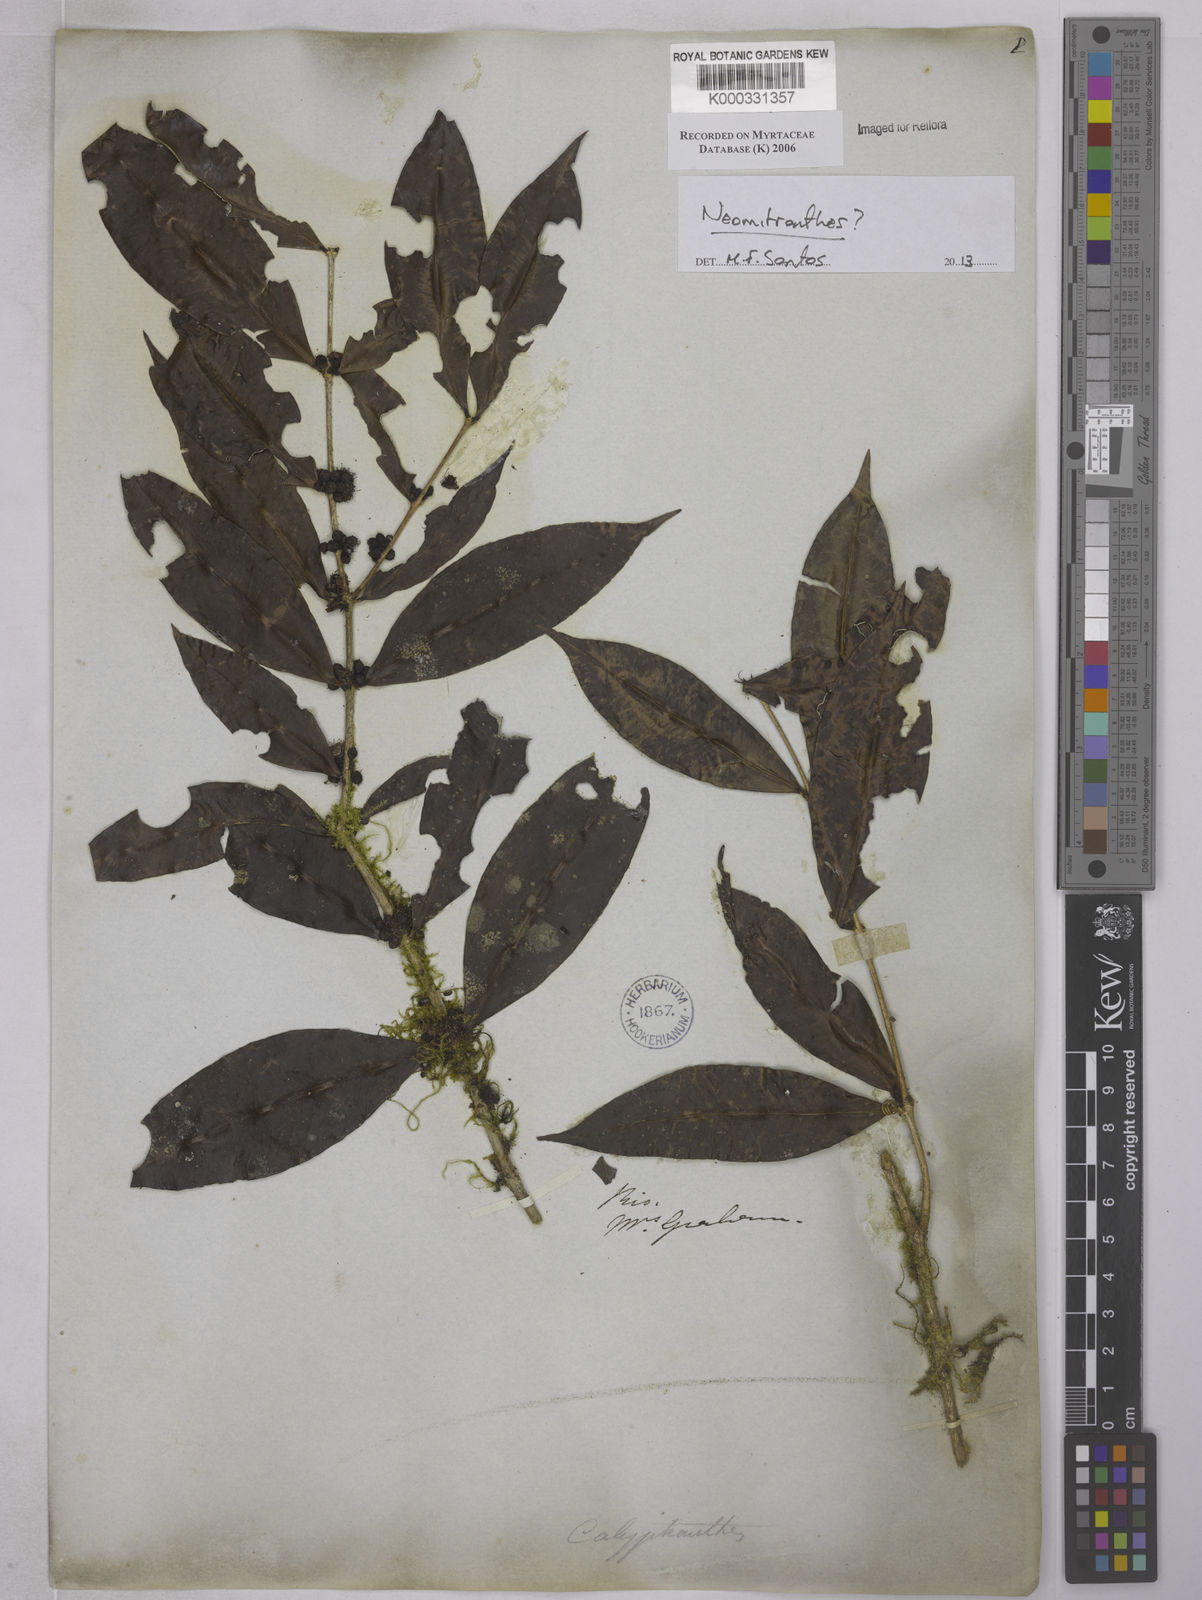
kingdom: Plantae
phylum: Tracheophyta
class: Magnoliopsida
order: Myrtales
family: Myrtaceae
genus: Neomitranthes
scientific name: Neomitranthes
